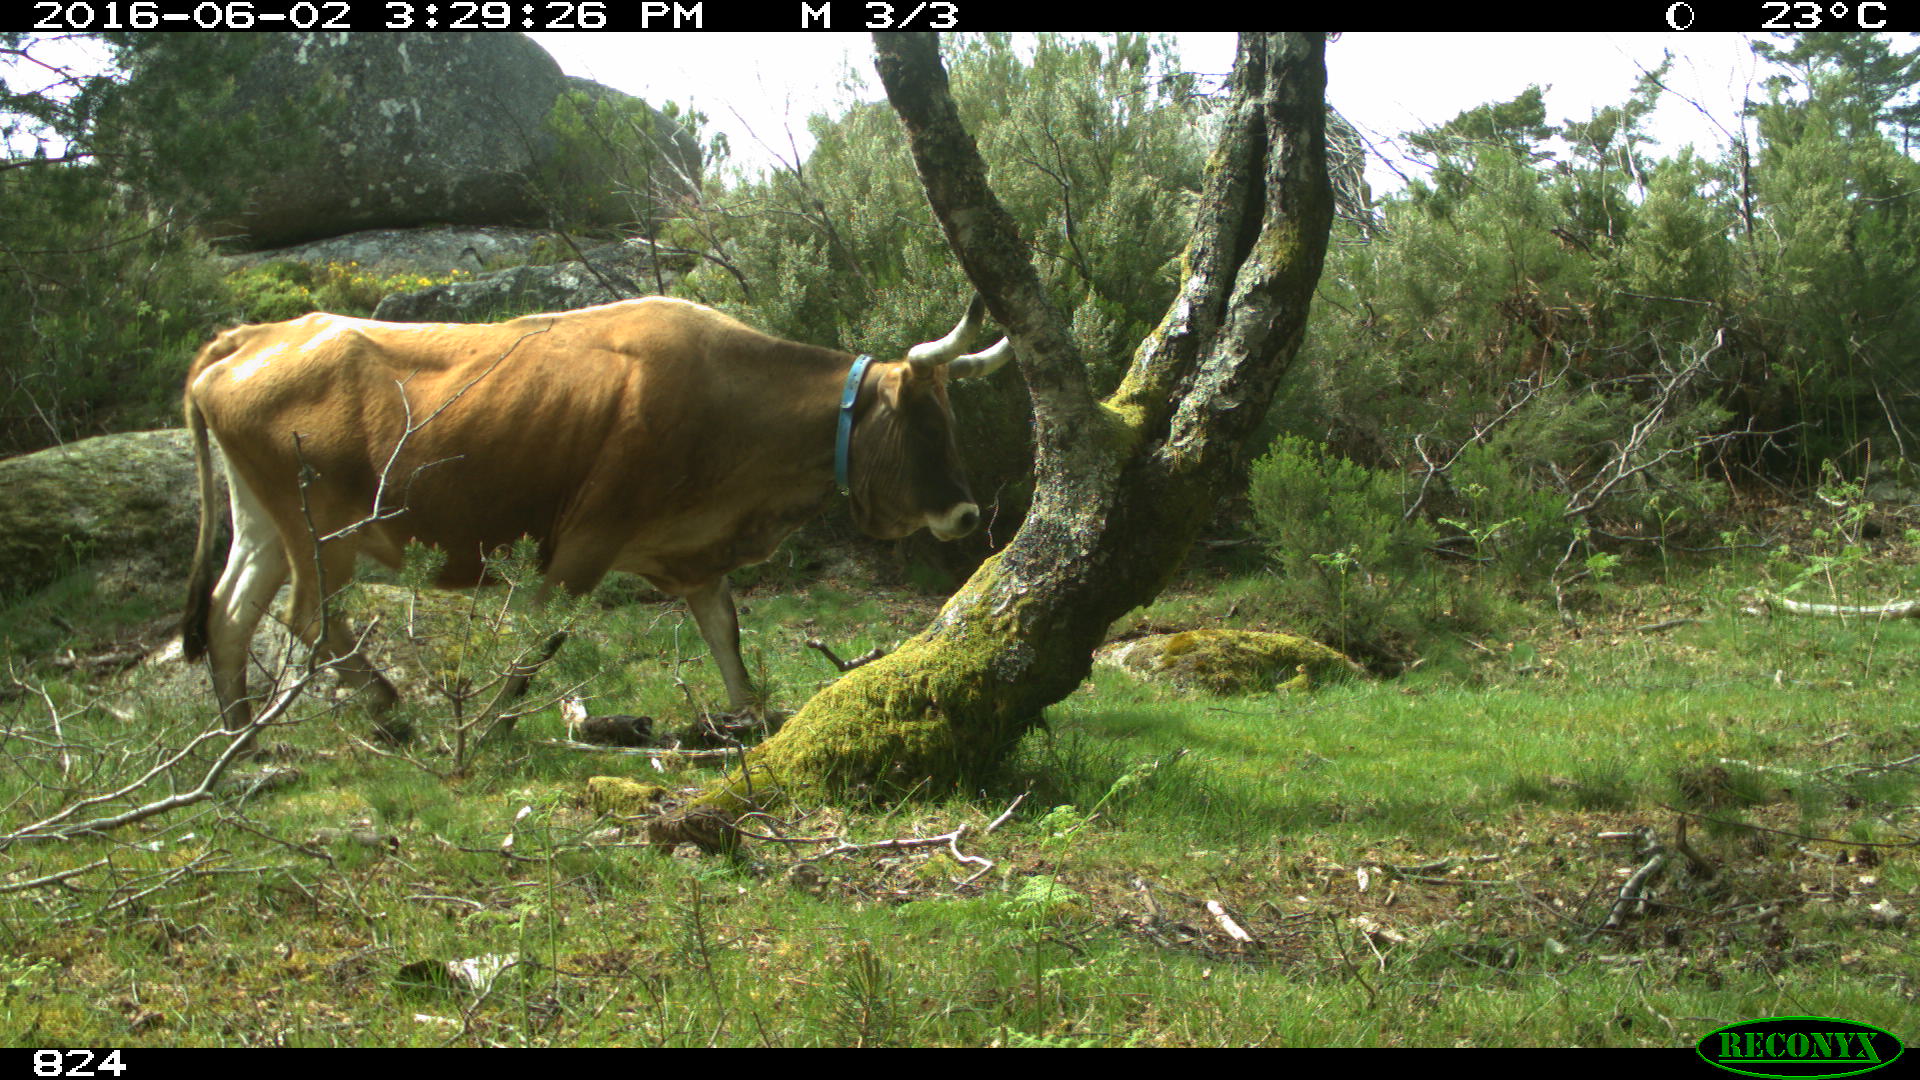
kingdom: Animalia
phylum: Chordata
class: Mammalia
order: Artiodactyla
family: Bovidae
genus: Bos
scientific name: Bos taurus
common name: Domesticated cattle
